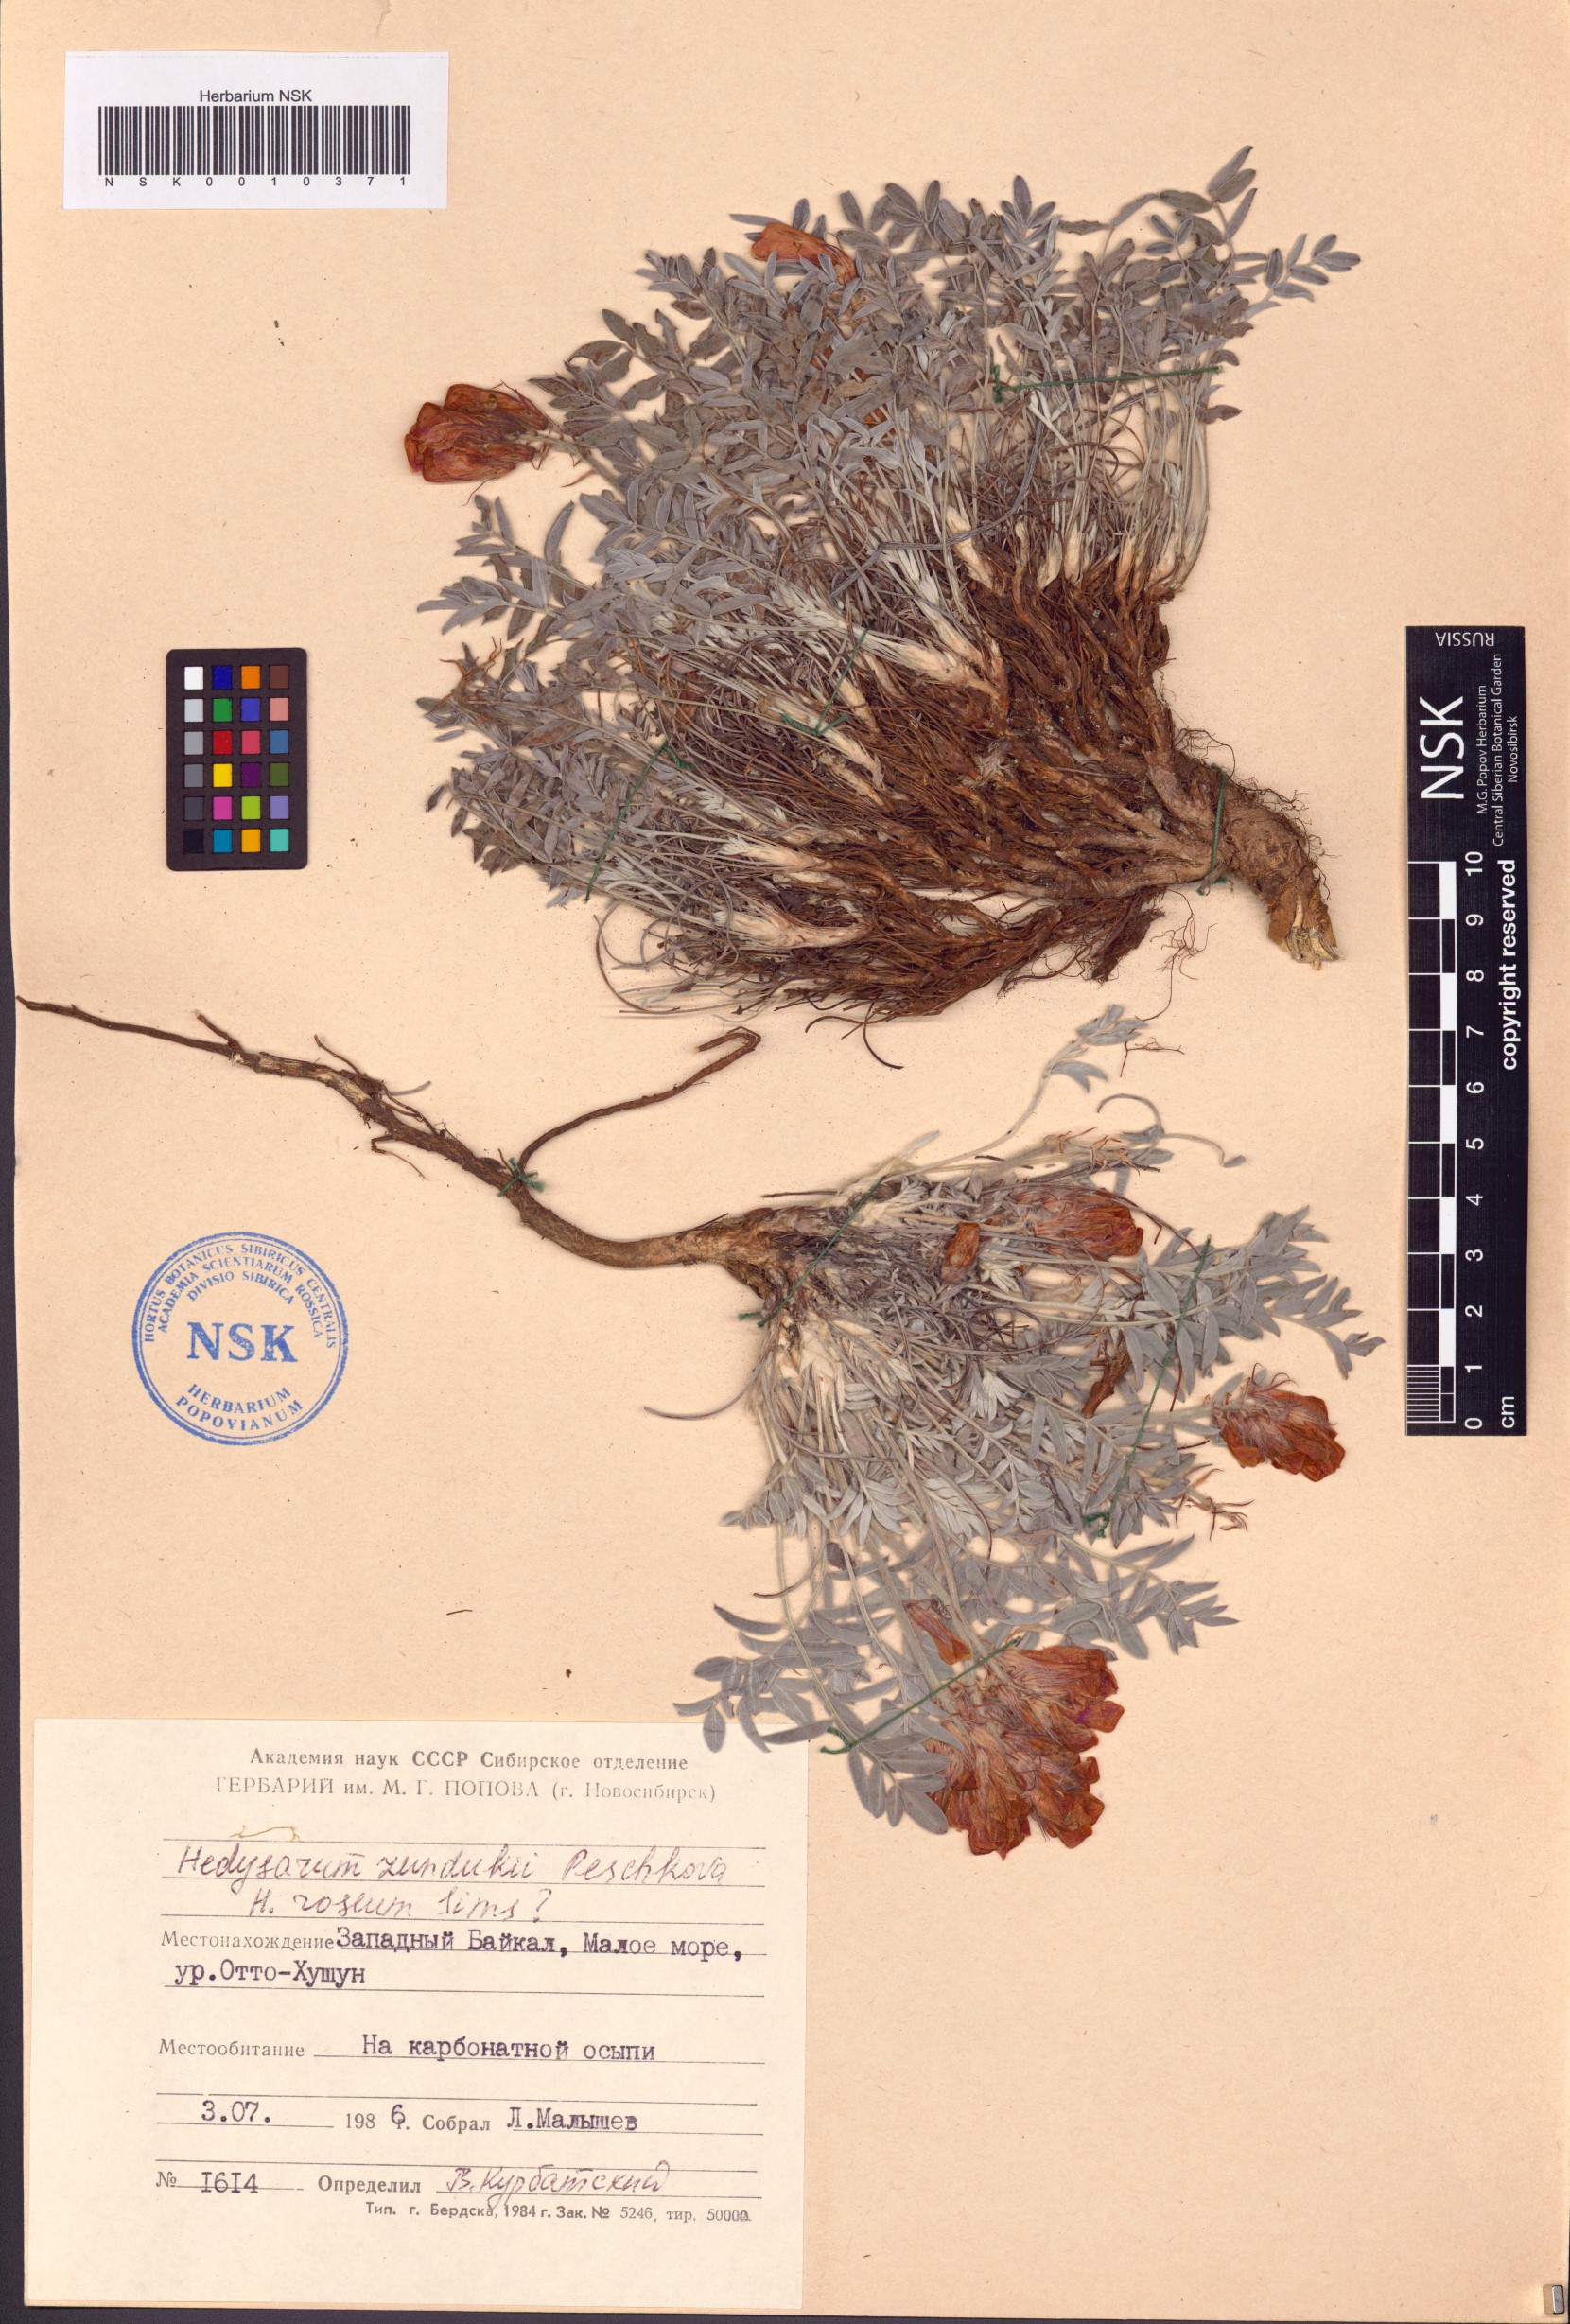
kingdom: Plantae
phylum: Tracheophyta
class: Magnoliopsida
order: Fabales
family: Fabaceae
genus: Hedysarum
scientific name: Hedysarum zundukii
